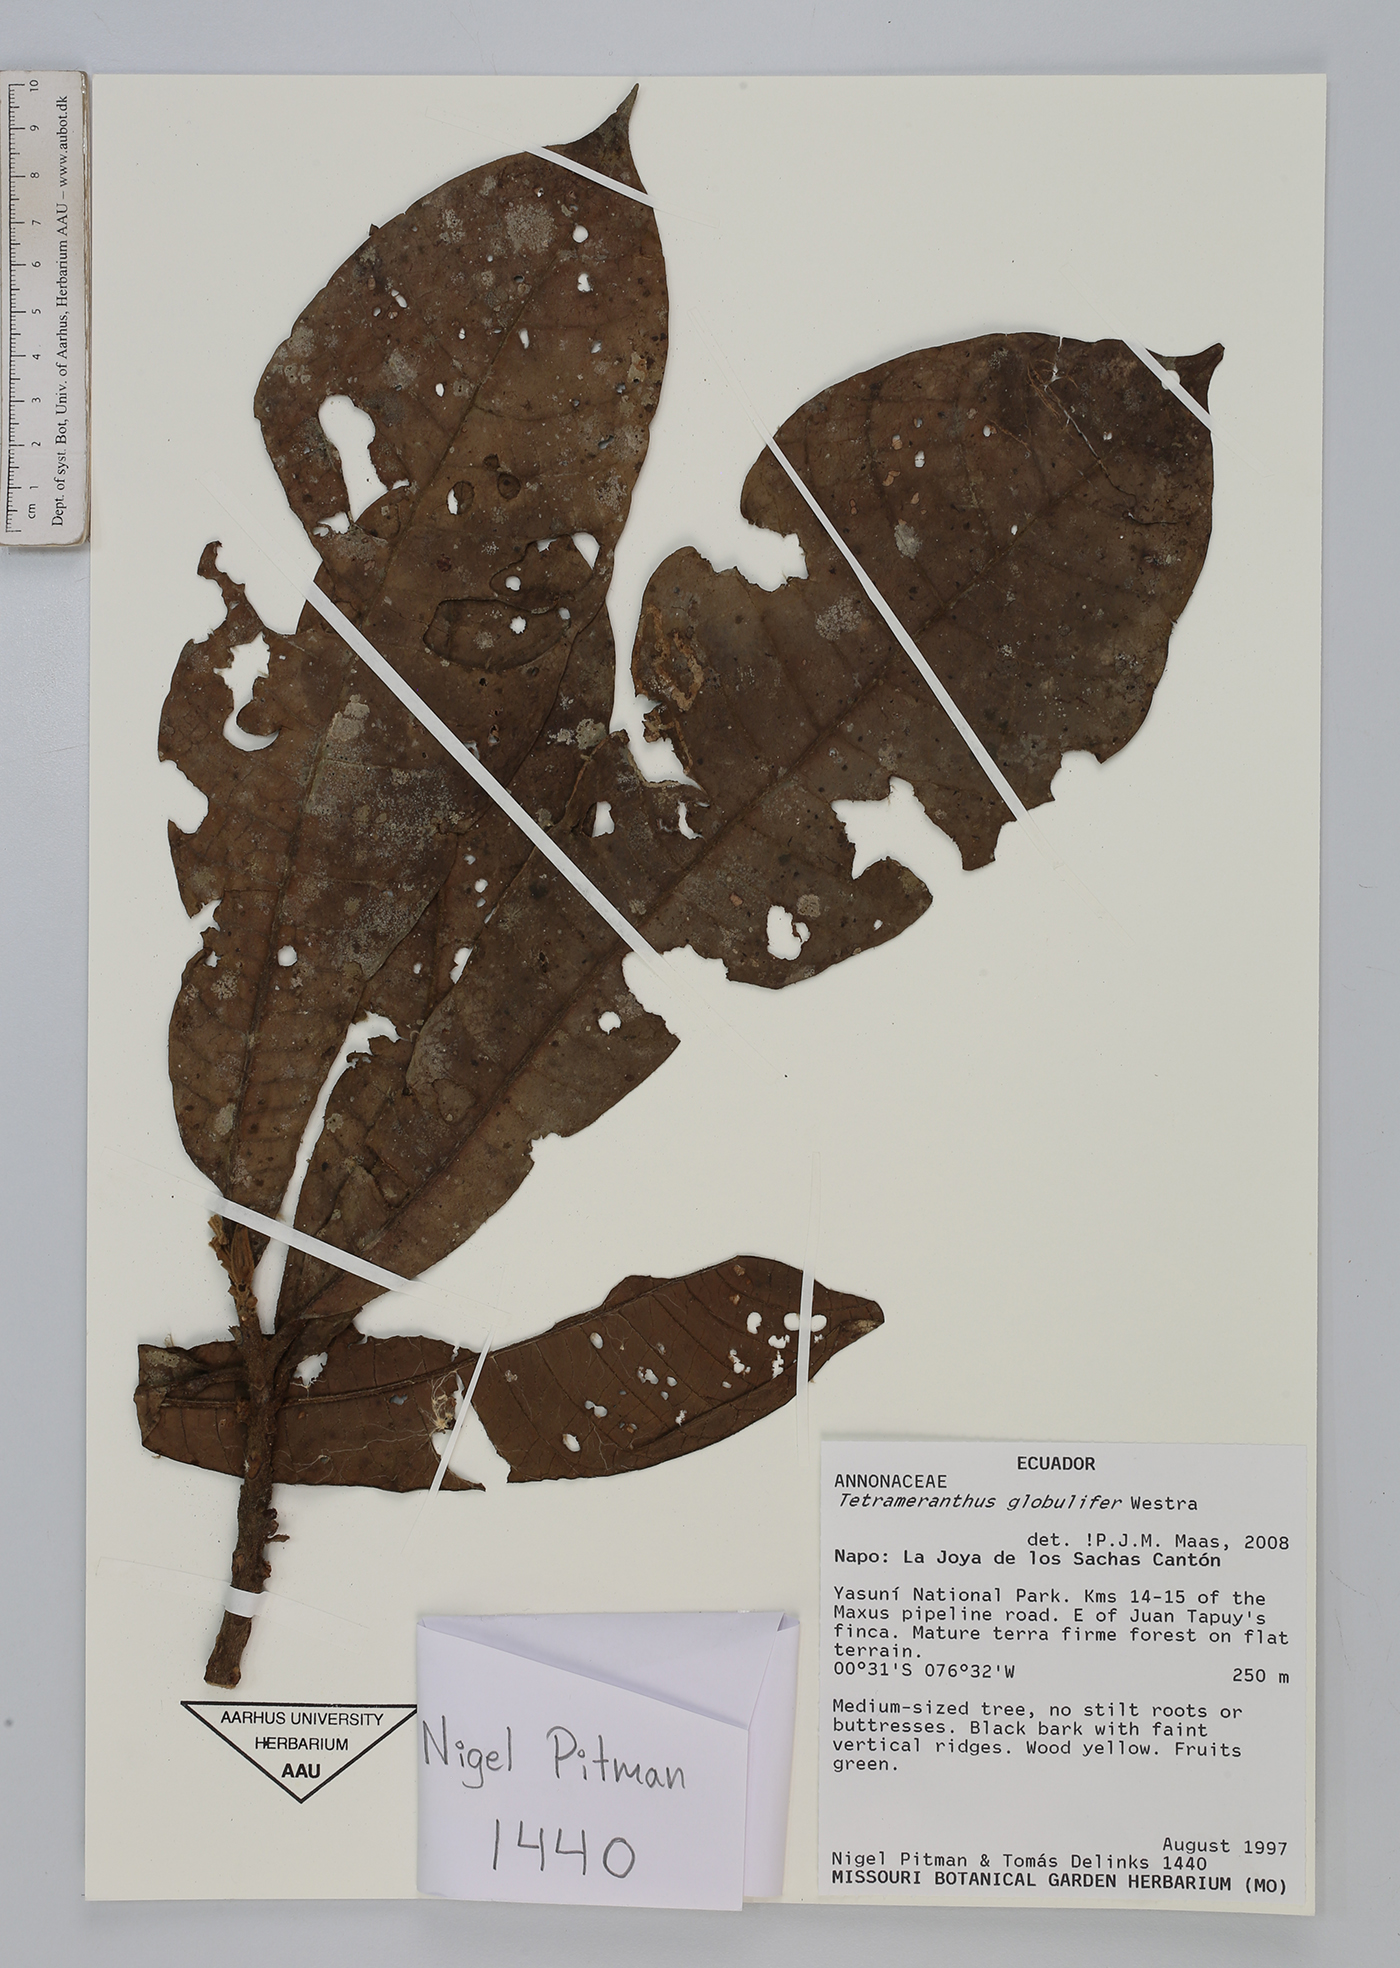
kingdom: Plantae
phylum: Tracheophyta
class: Magnoliopsida
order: Magnoliales
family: Annonaceae
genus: Tetrameranthus
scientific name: Tetrameranthus globulifer
